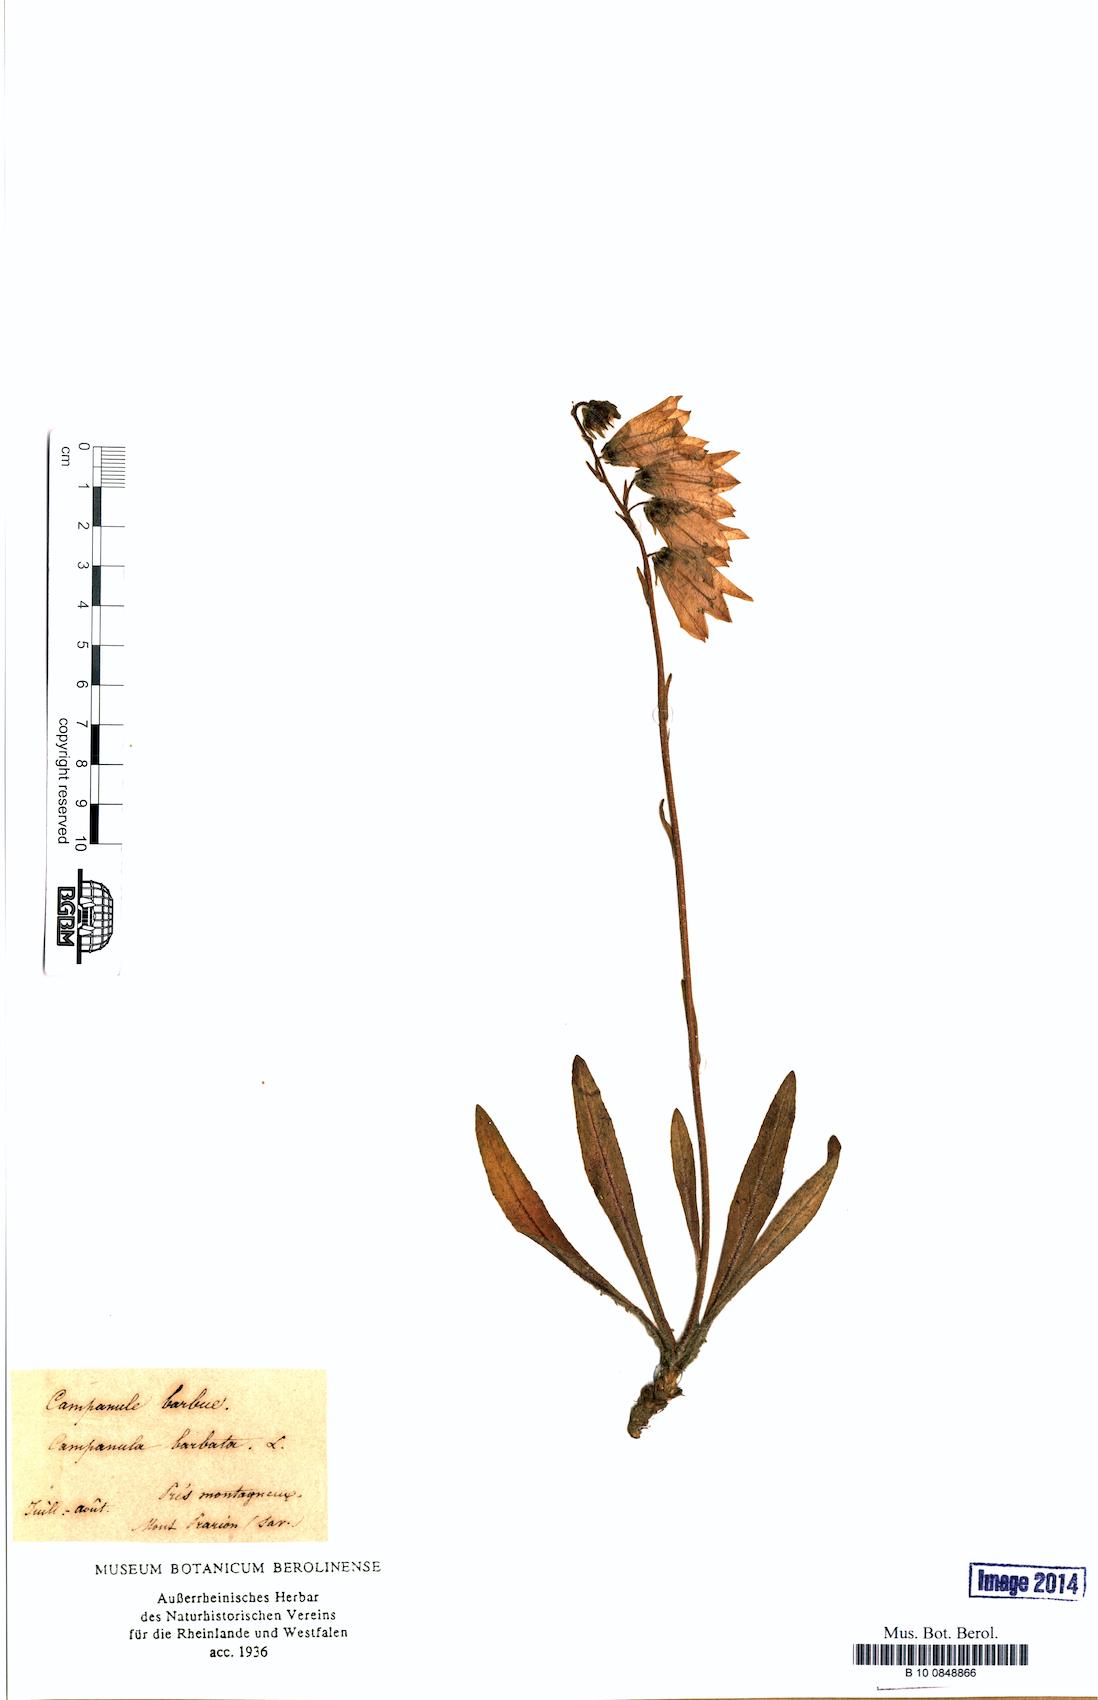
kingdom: Plantae
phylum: Tracheophyta
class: Magnoliopsida
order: Asterales
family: Campanulaceae
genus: Campanula
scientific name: Campanula barbata
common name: Bearded bellflower
